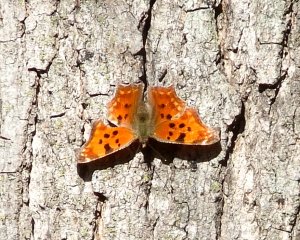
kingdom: Animalia
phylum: Arthropoda
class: Insecta
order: Lepidoptera
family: Nymphalidae
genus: Polygonia
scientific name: Polygonia comma
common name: Eastern Comma
